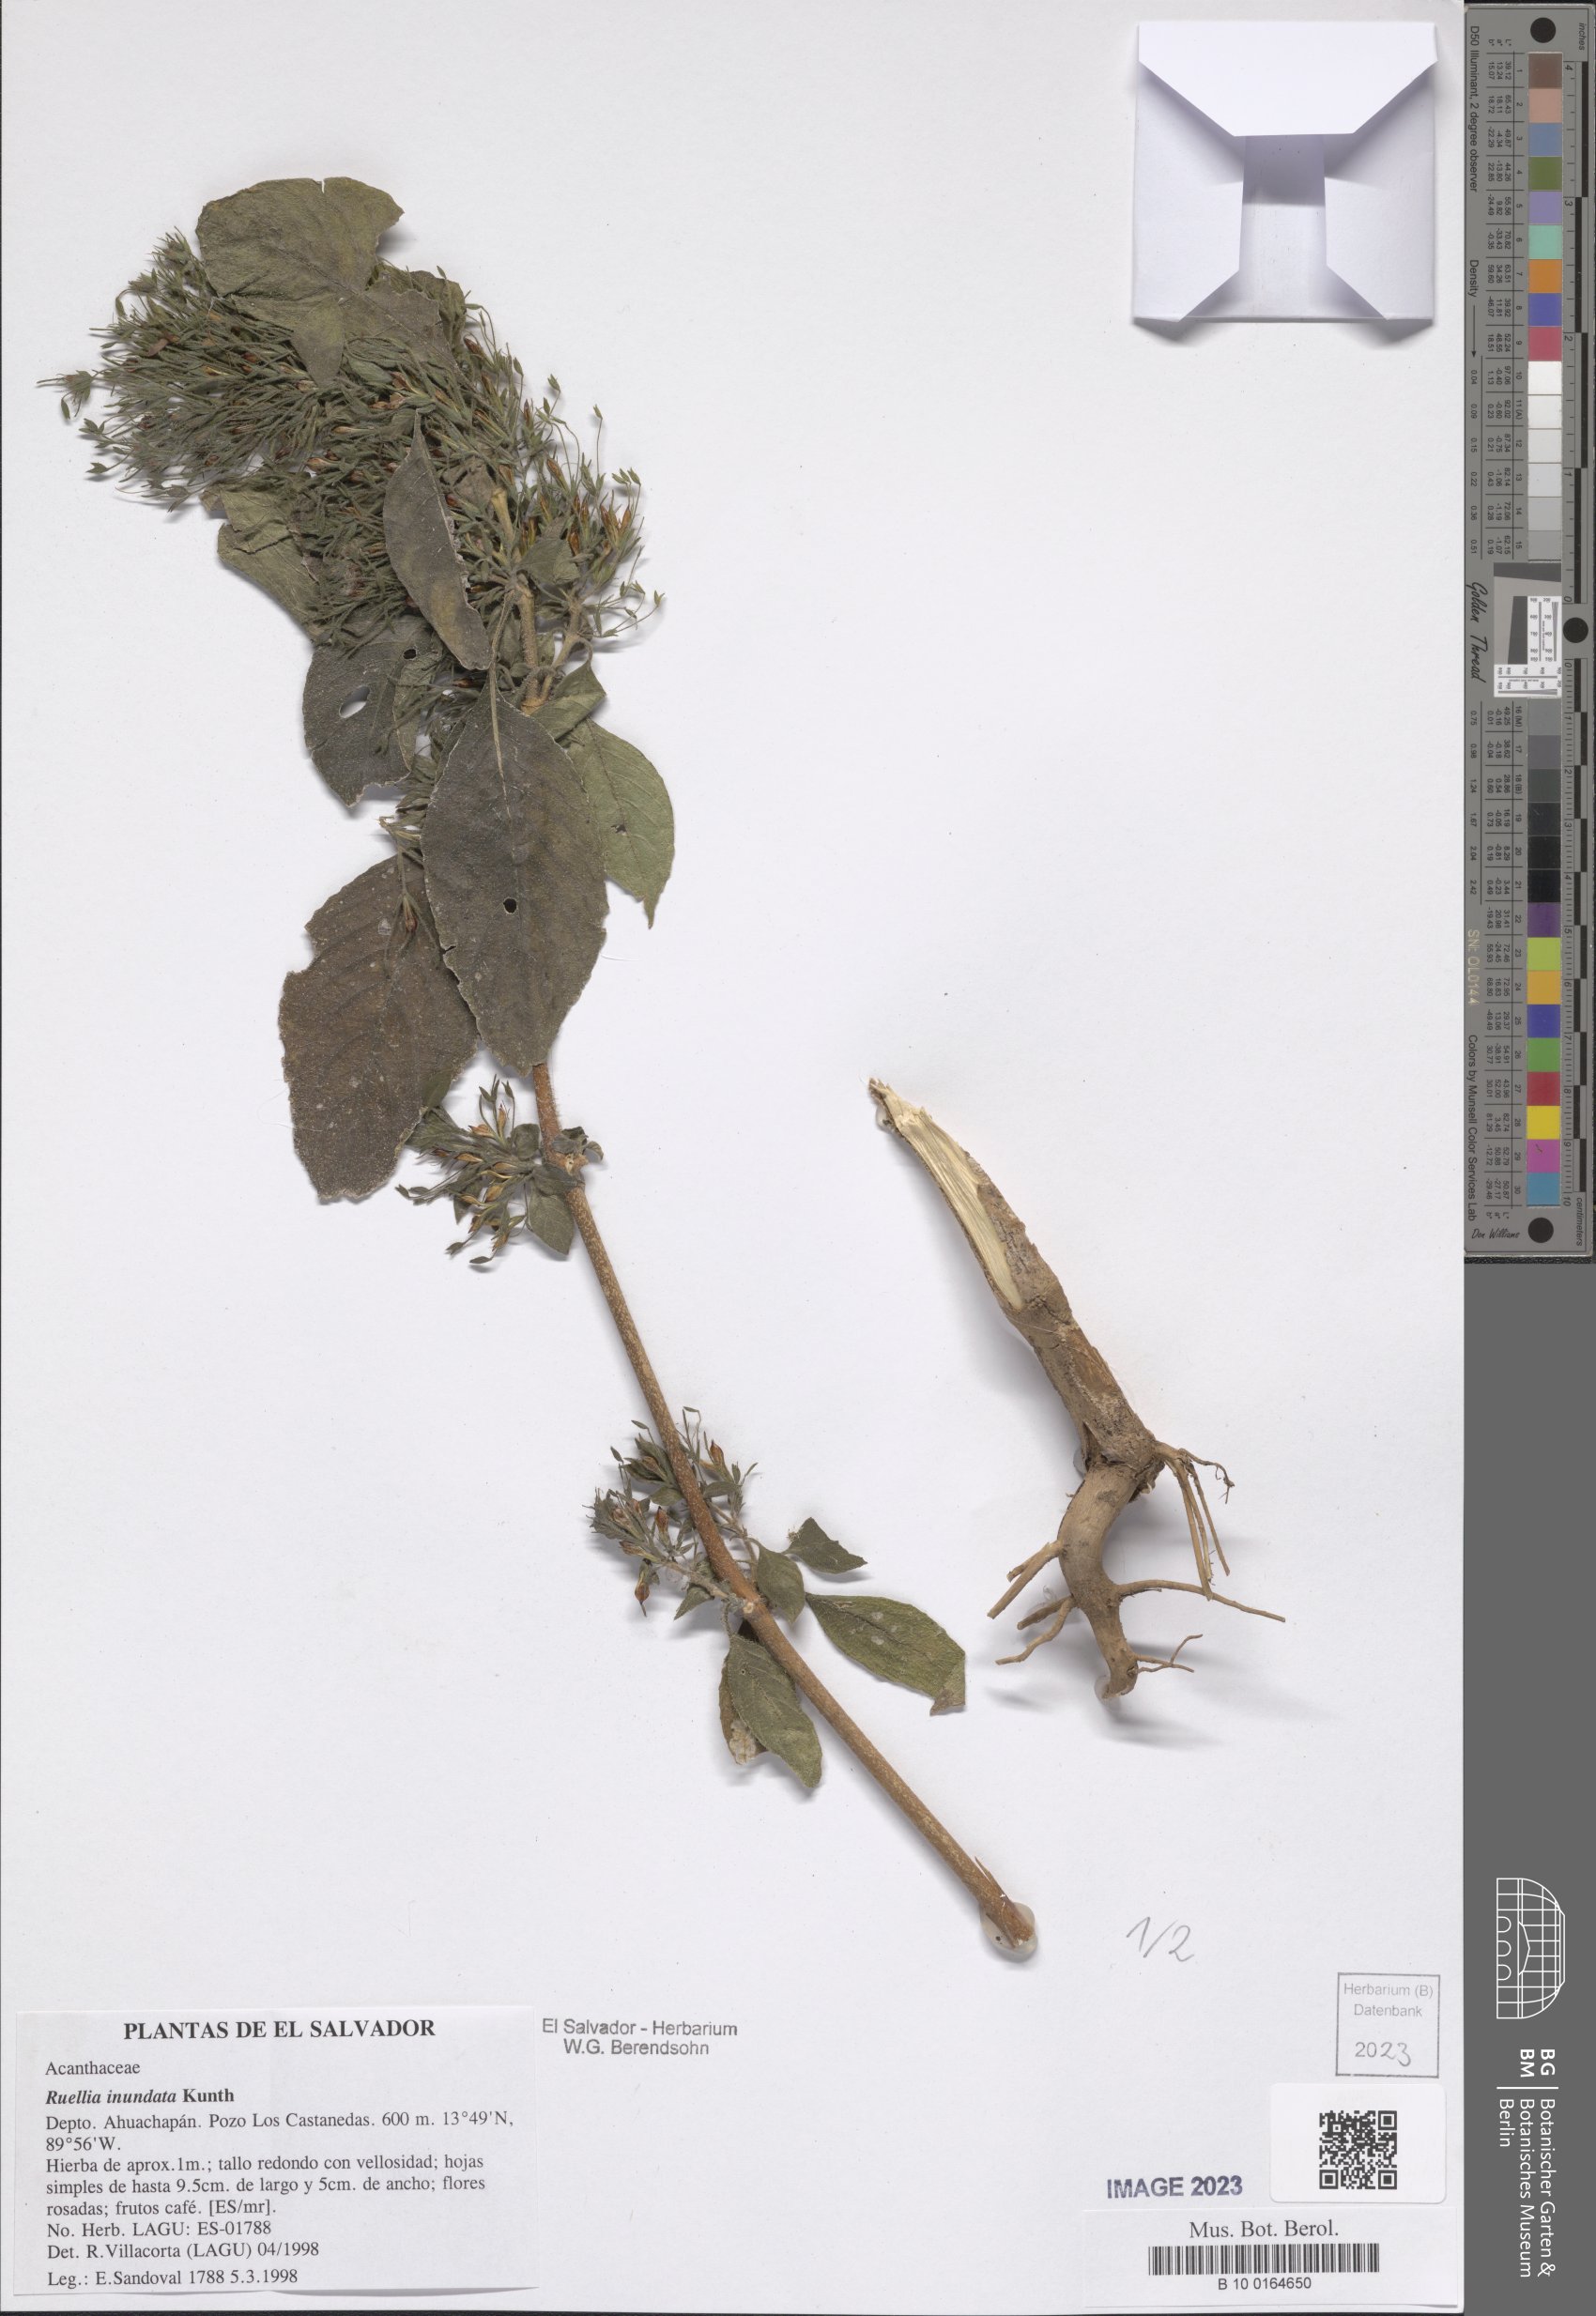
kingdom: Plantae
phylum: Tracheophyta
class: Magnoliopsida
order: Lamiales
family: Acanthaceae
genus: Ruellia
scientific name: Ruellia inundata
